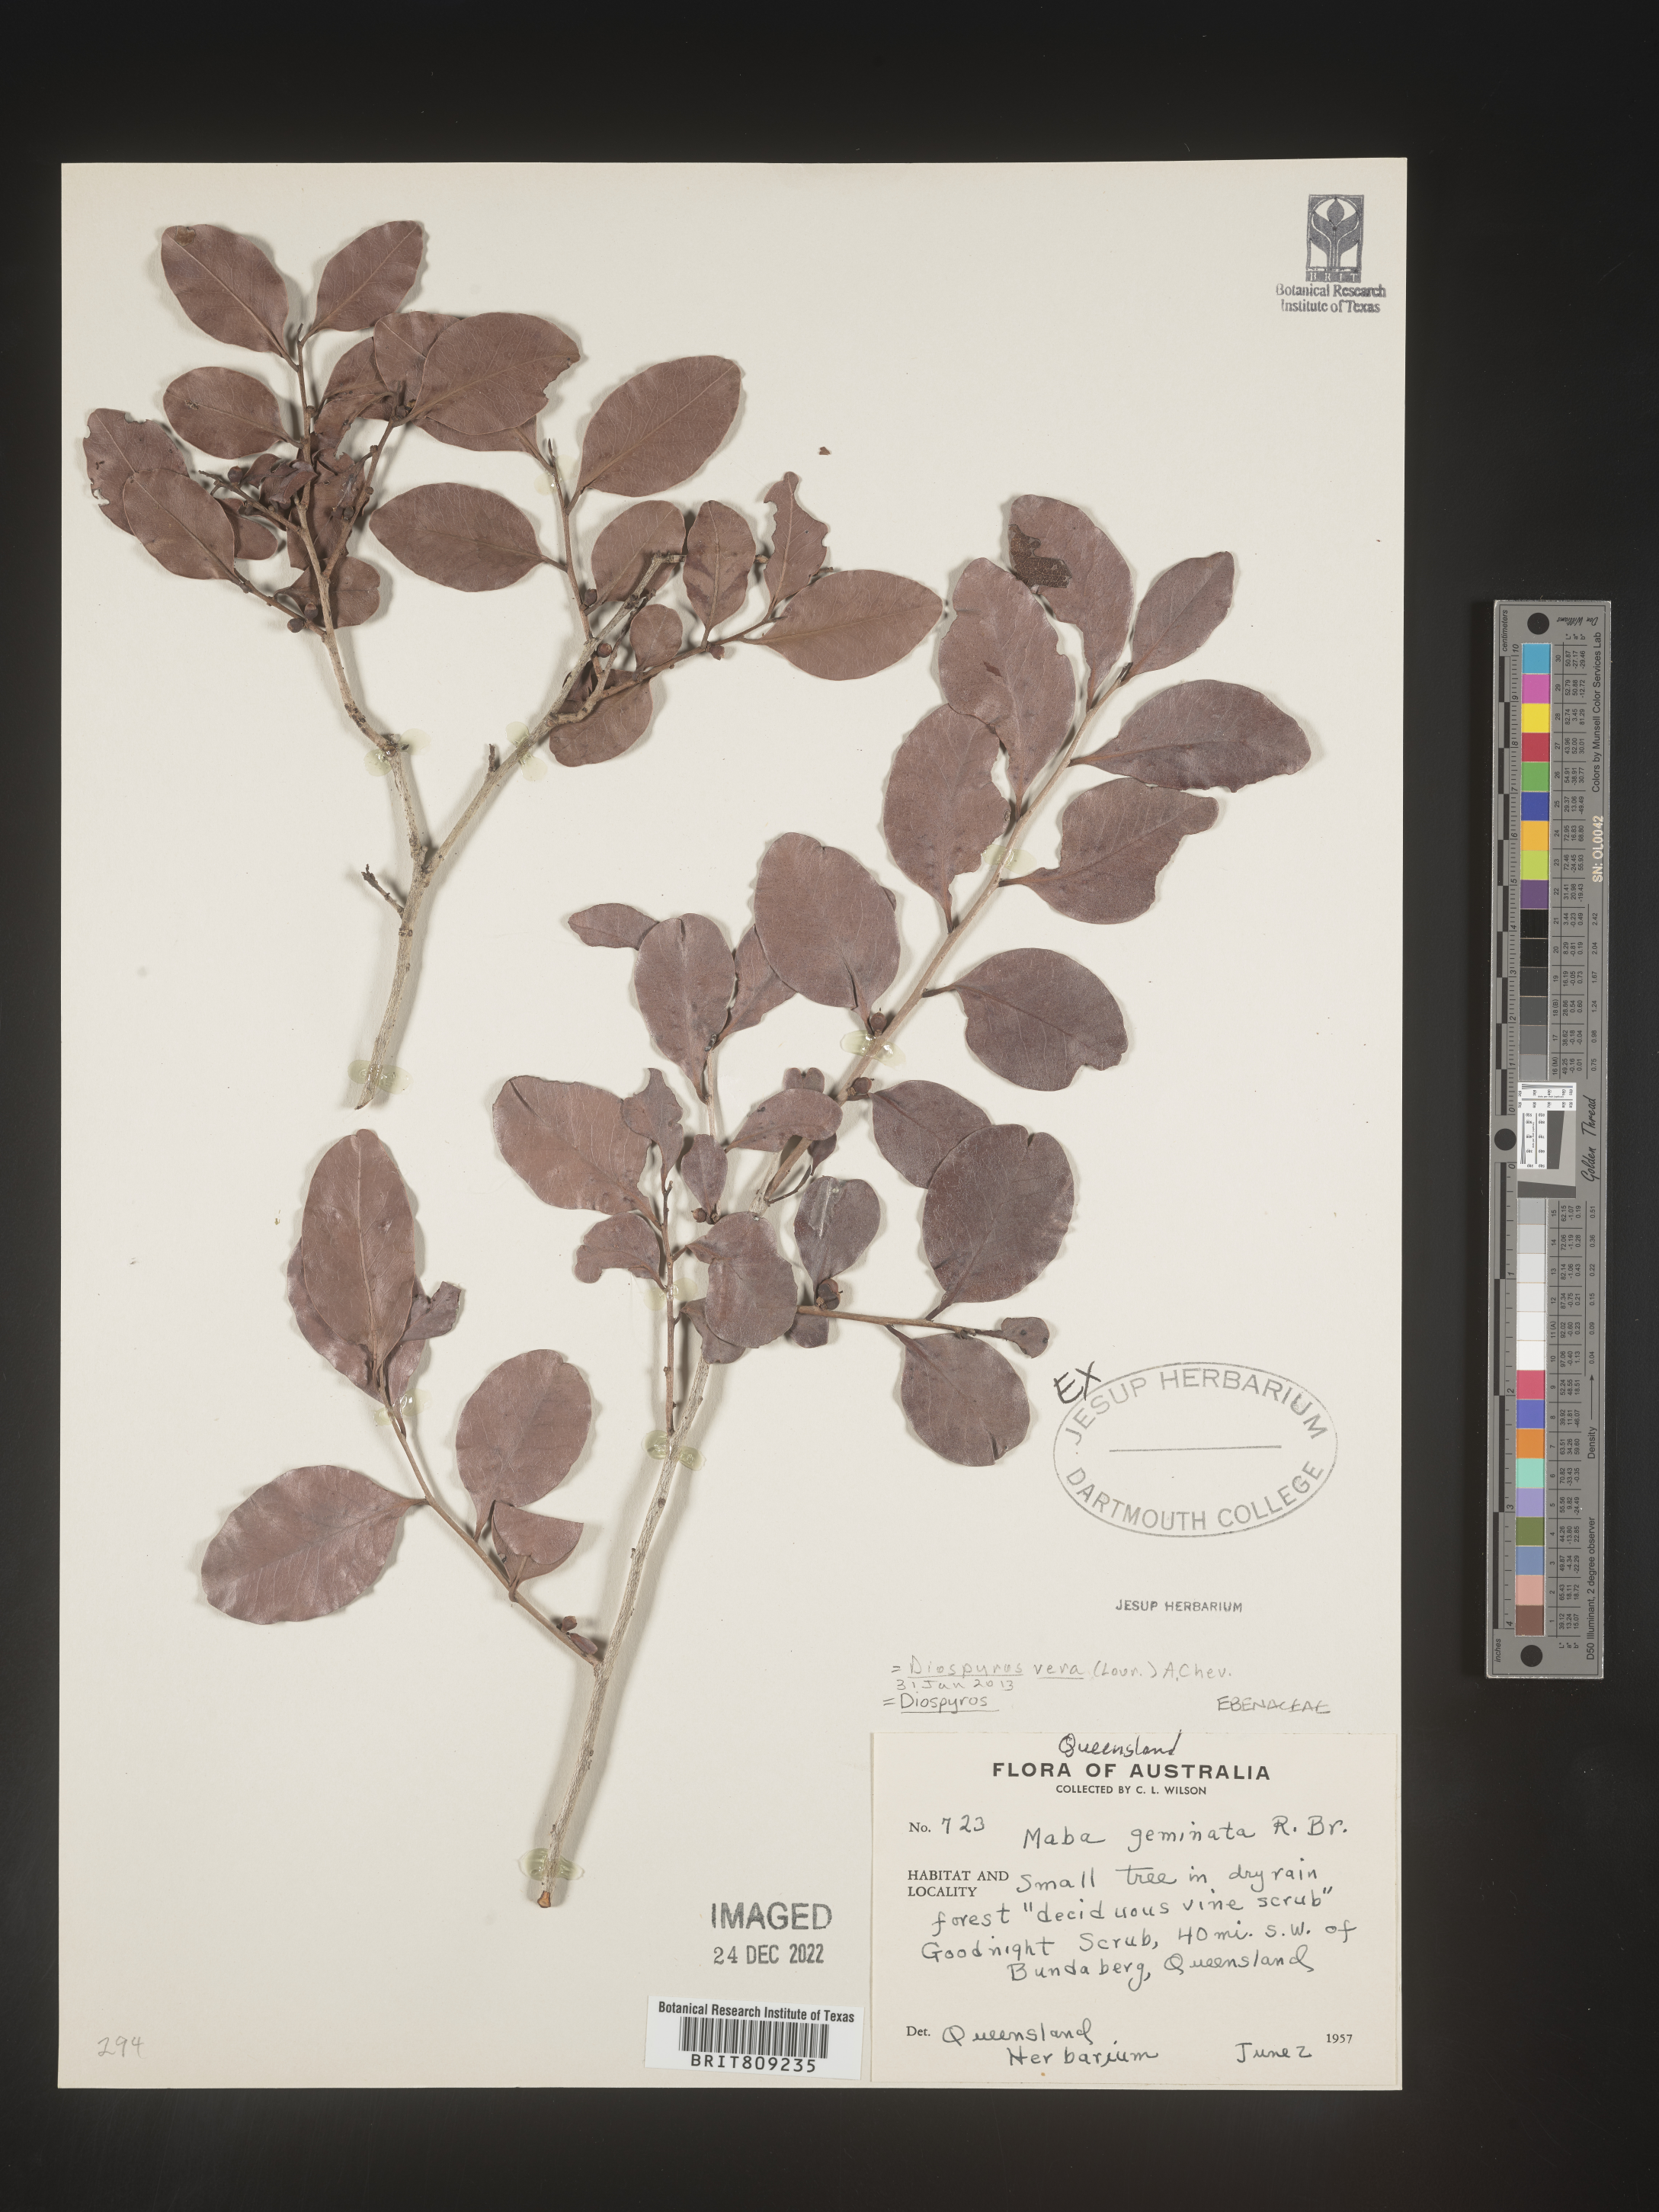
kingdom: Plantae
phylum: Tracheophyta
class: Magnoliopsida
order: Ericales
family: Ebenaceae
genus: Diospyros
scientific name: Diospyros
